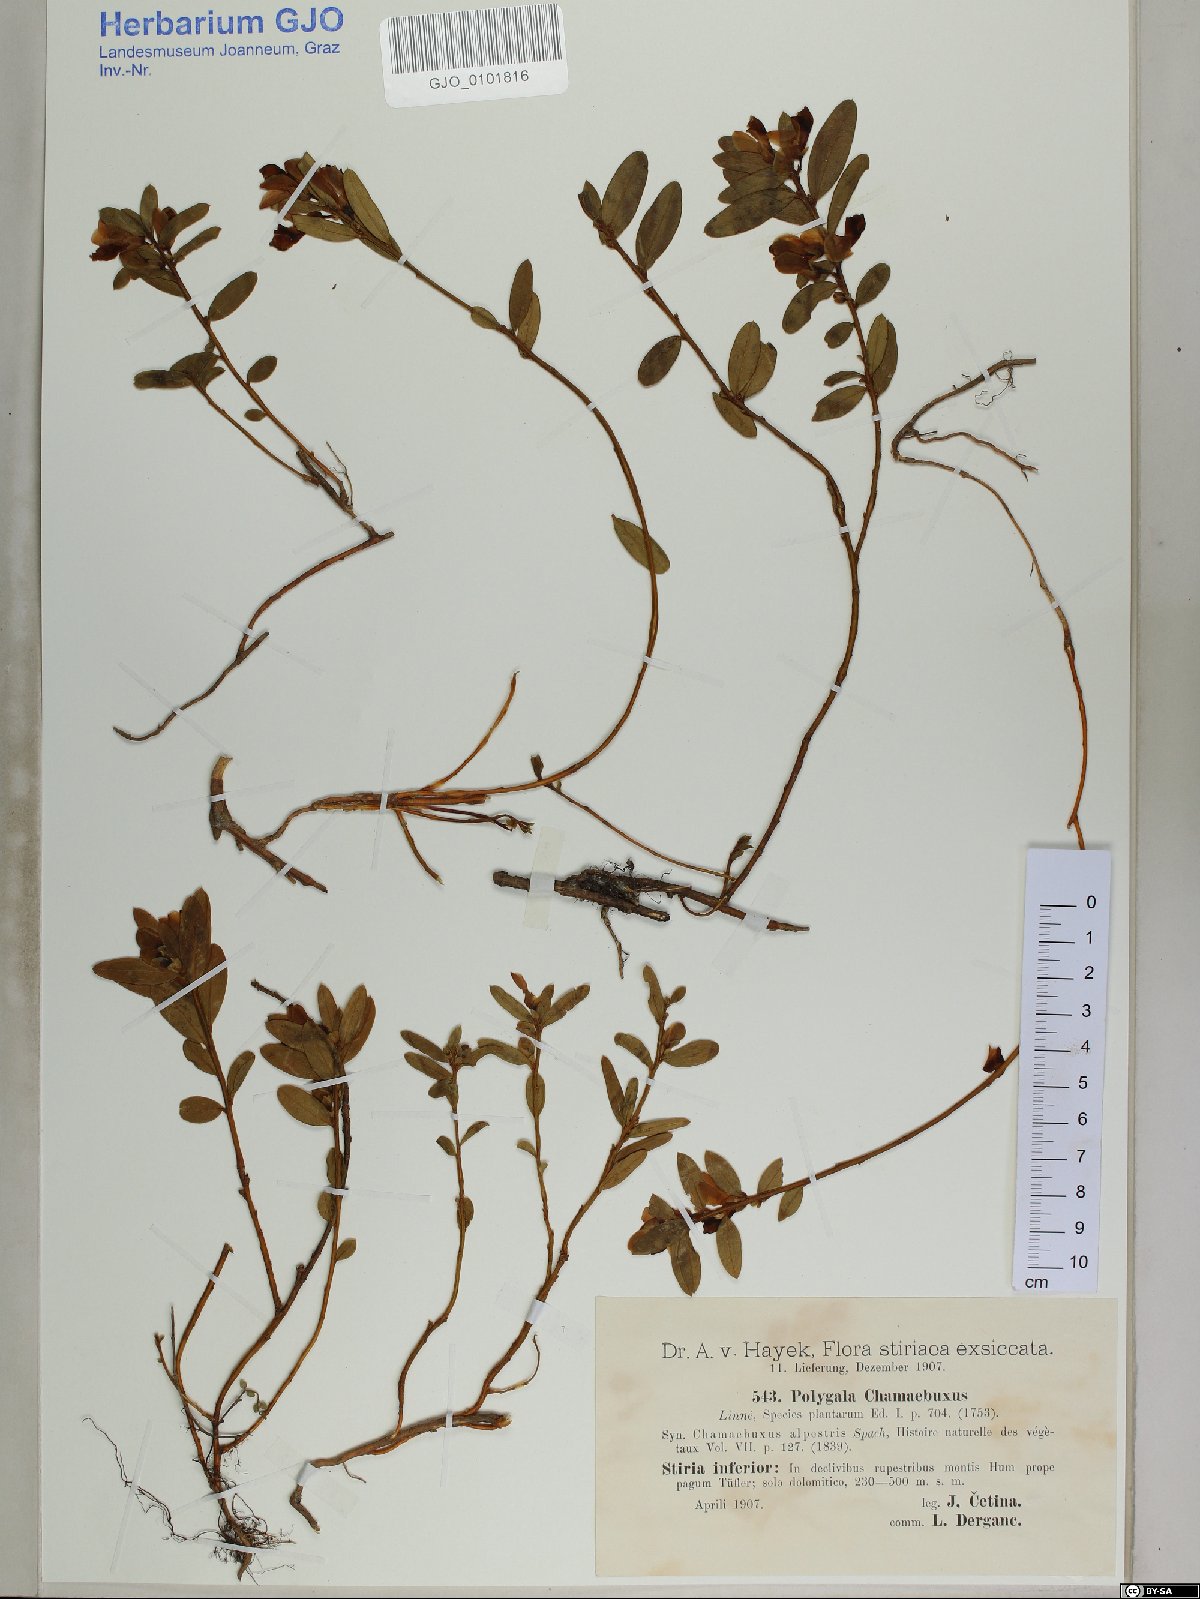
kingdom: Plantae
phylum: Tracheophyta
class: Magnoliopsida
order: Fabales
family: Polygalaceae
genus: Polygaloides
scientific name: Polygaloides chamaebuxus
